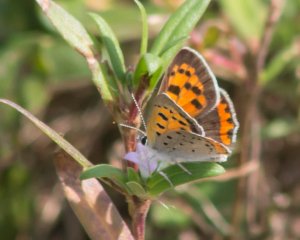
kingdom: Animalia
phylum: Arthropoda
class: Insecta
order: Lepidoptera
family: Lycaenidae
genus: Lycaena
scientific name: Lycaena phlaeas
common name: American Copper
